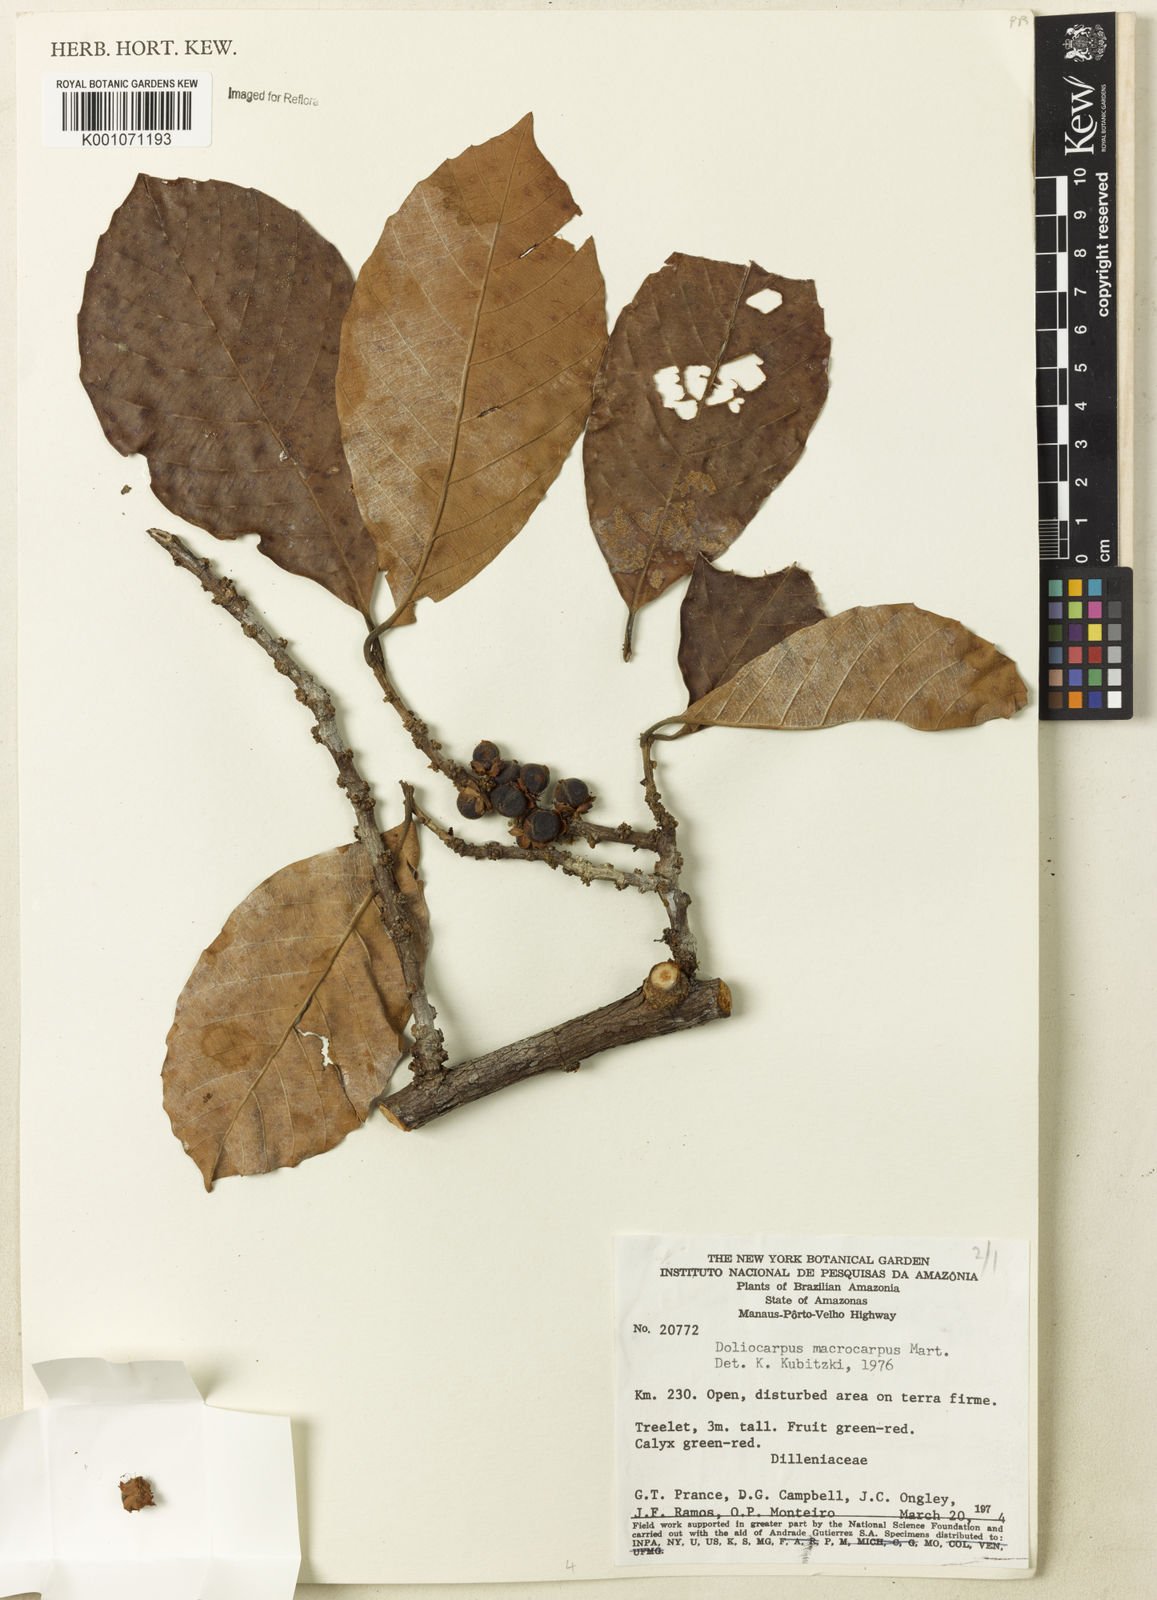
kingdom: Plantae
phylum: Tracheophyta
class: Magnoliopsida
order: Dilleniales
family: Dilleniaceae
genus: Doliocarpus
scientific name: Doliocarpus macrocarpus
